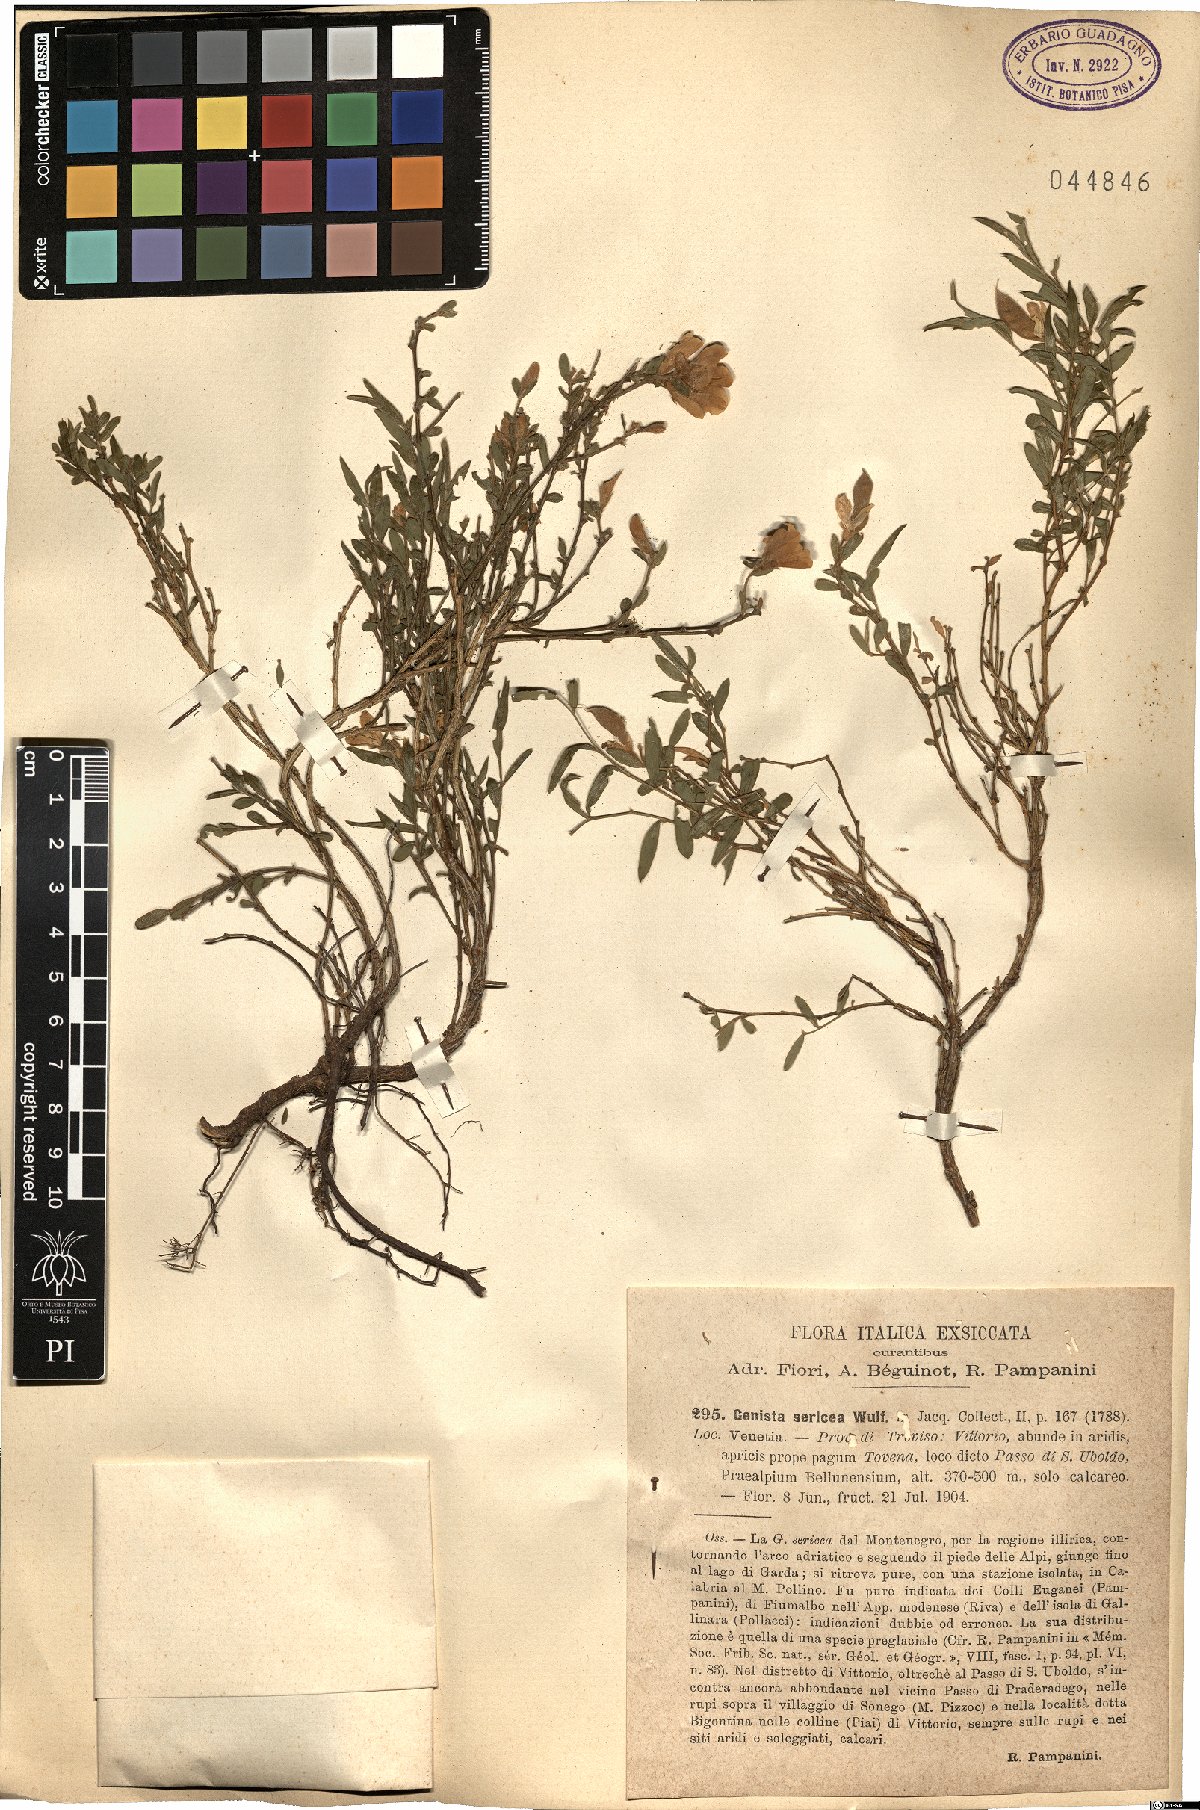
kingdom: Plantae
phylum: Tracheophyta
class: Magnoliopsida
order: Fabales
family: Fabaceae
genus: Genista
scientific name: Genista sericea
